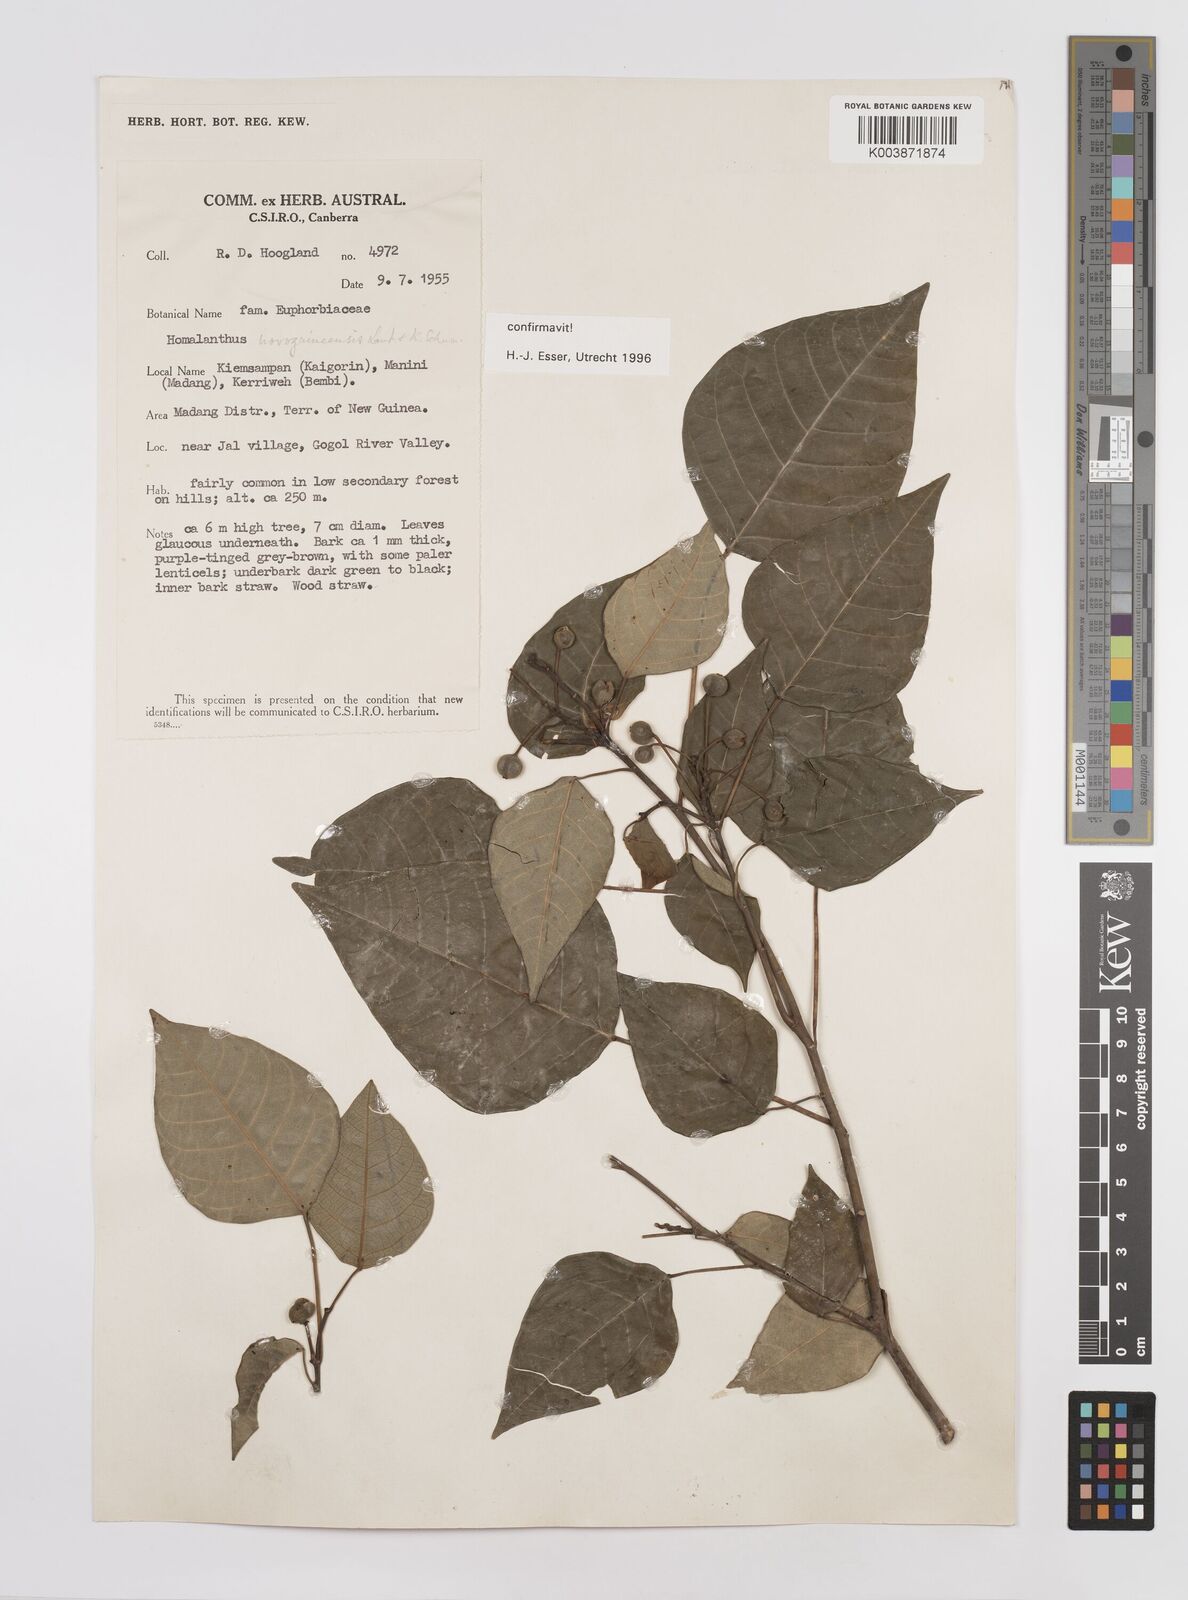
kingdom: Plantae
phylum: Tracheophyta
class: Magnoliopsida
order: Malpighiales
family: Euphorbiaceae
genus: Homalanthus
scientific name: Homalanthus novoguineensis
